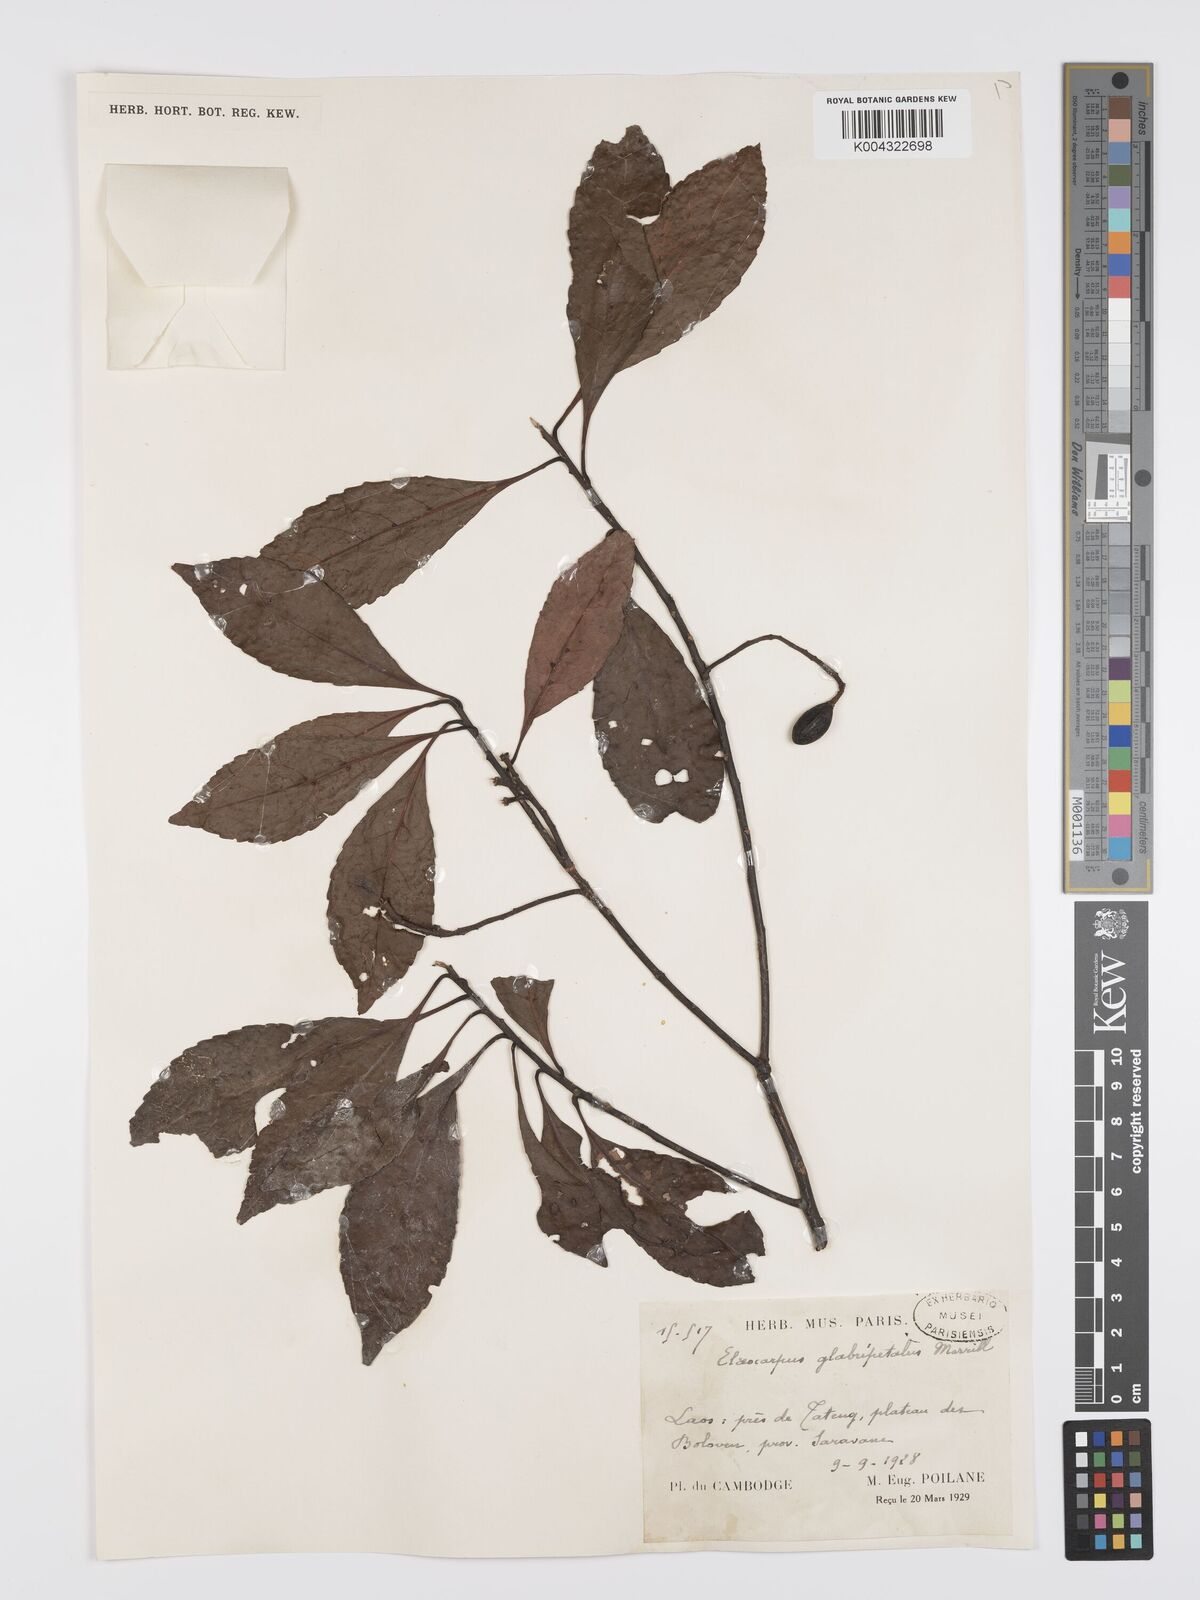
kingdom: Plantae
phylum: Tracheophyta
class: Magnoliopsida
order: Oxalidales
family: Elaeocarpaceae
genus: Elaeocarpus
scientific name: Elaeocarpus glabripetalus
